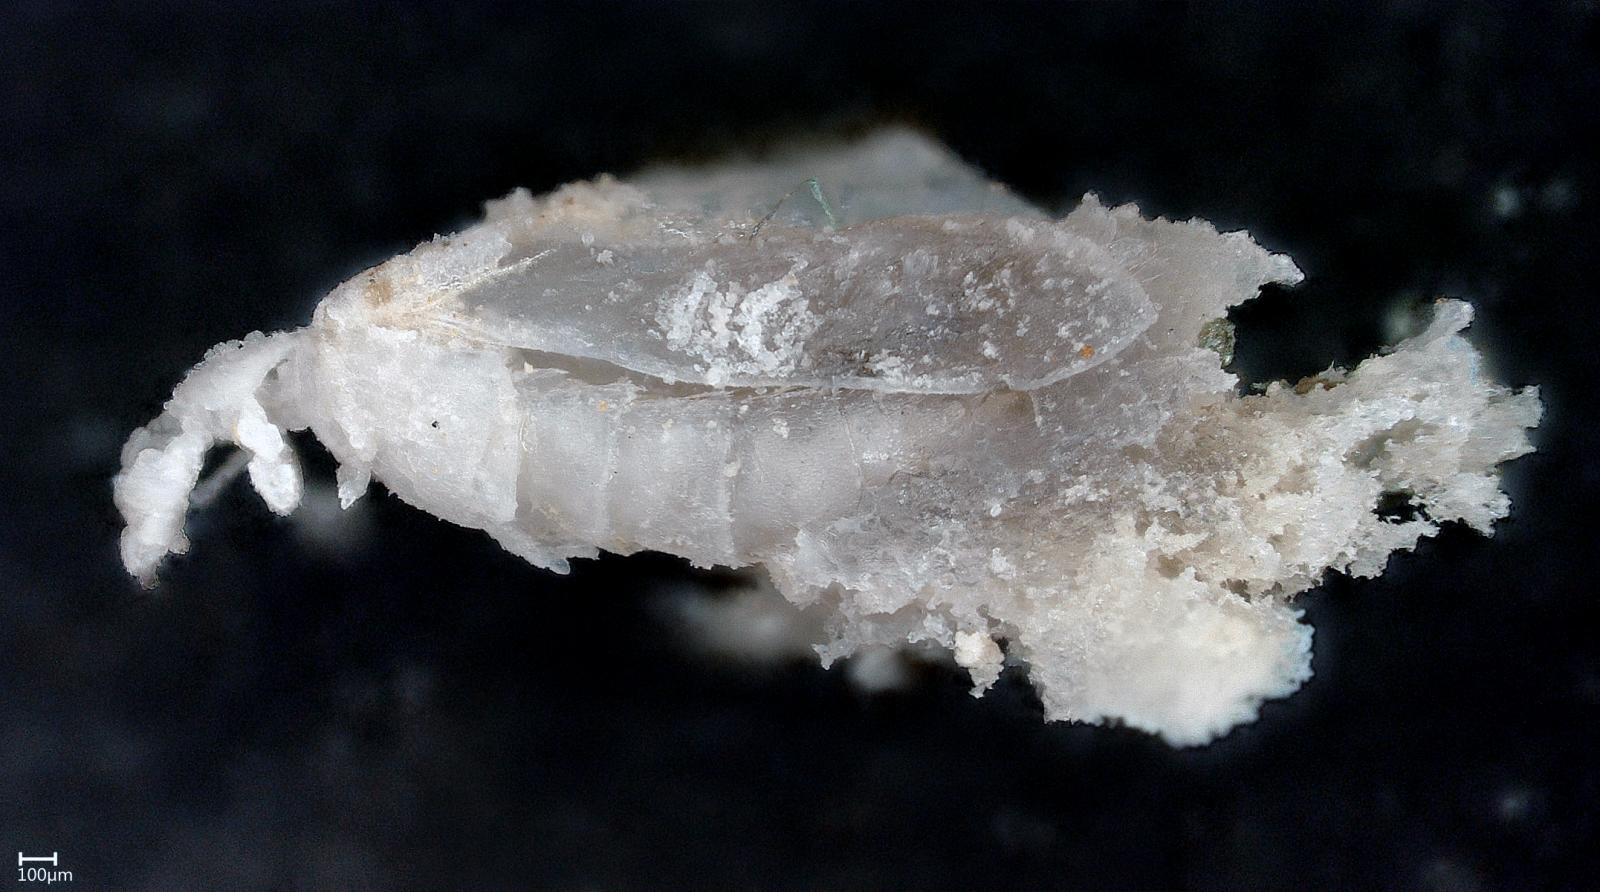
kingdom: Animalia
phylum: Arthropoda
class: Insecta
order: Coleoptera
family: Staphylinidae
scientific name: Staphylinidae
